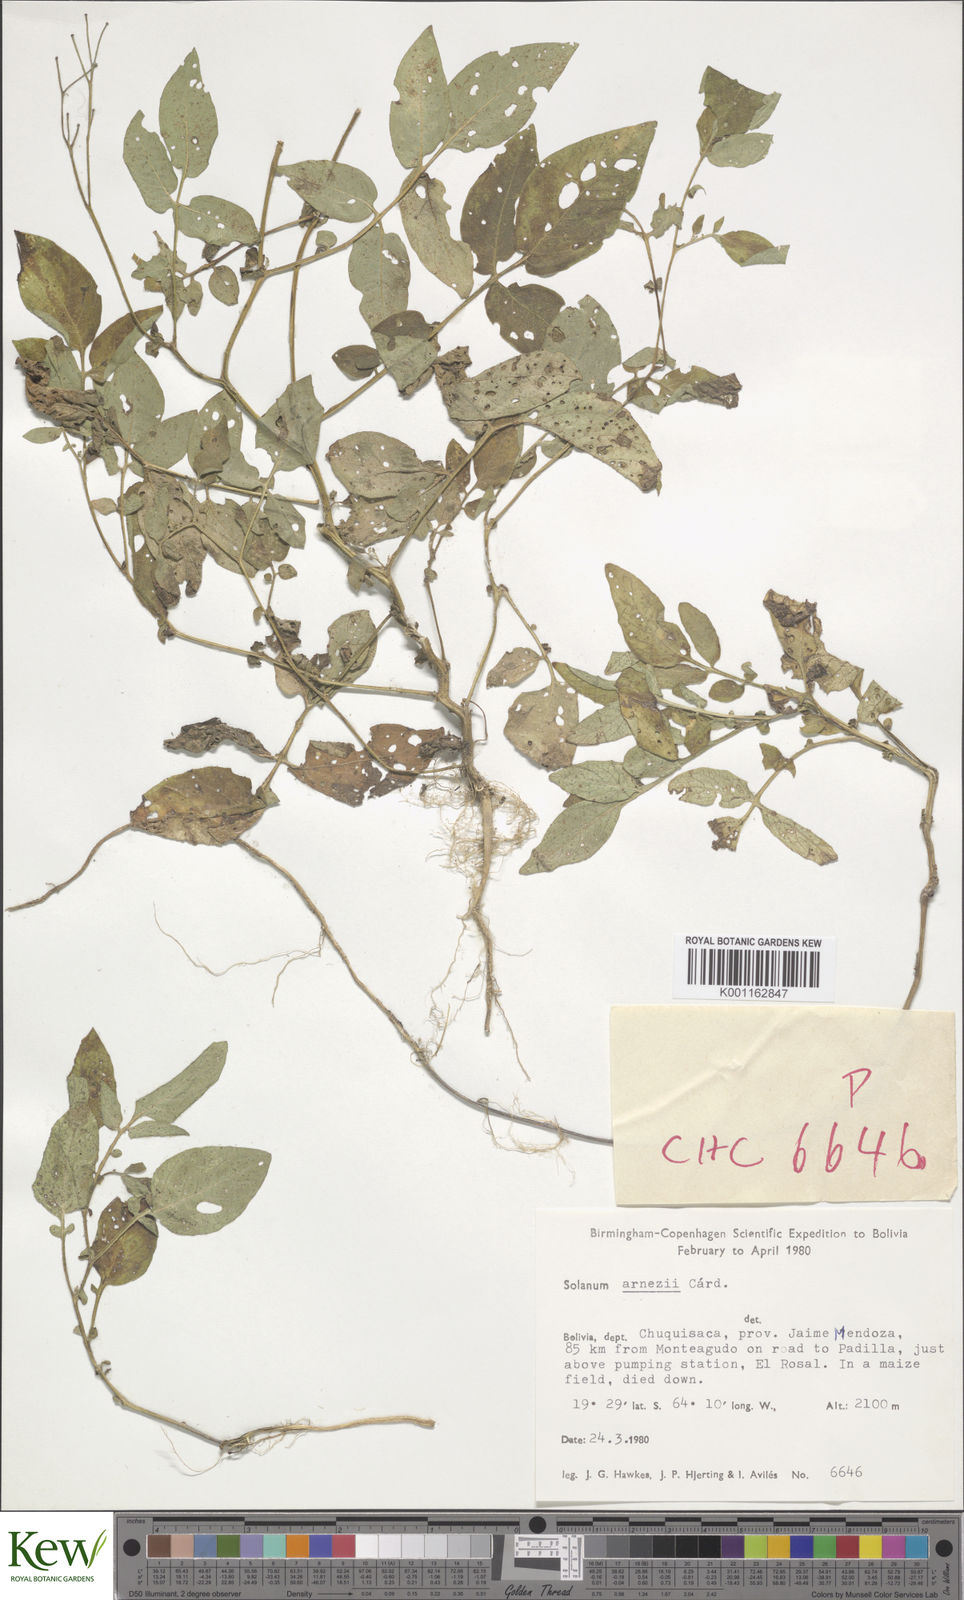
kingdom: Plantae
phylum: Tracheophyta
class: Magnoliopsida
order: Solanales
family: Solanaceae
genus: Solanum
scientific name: Solanum
